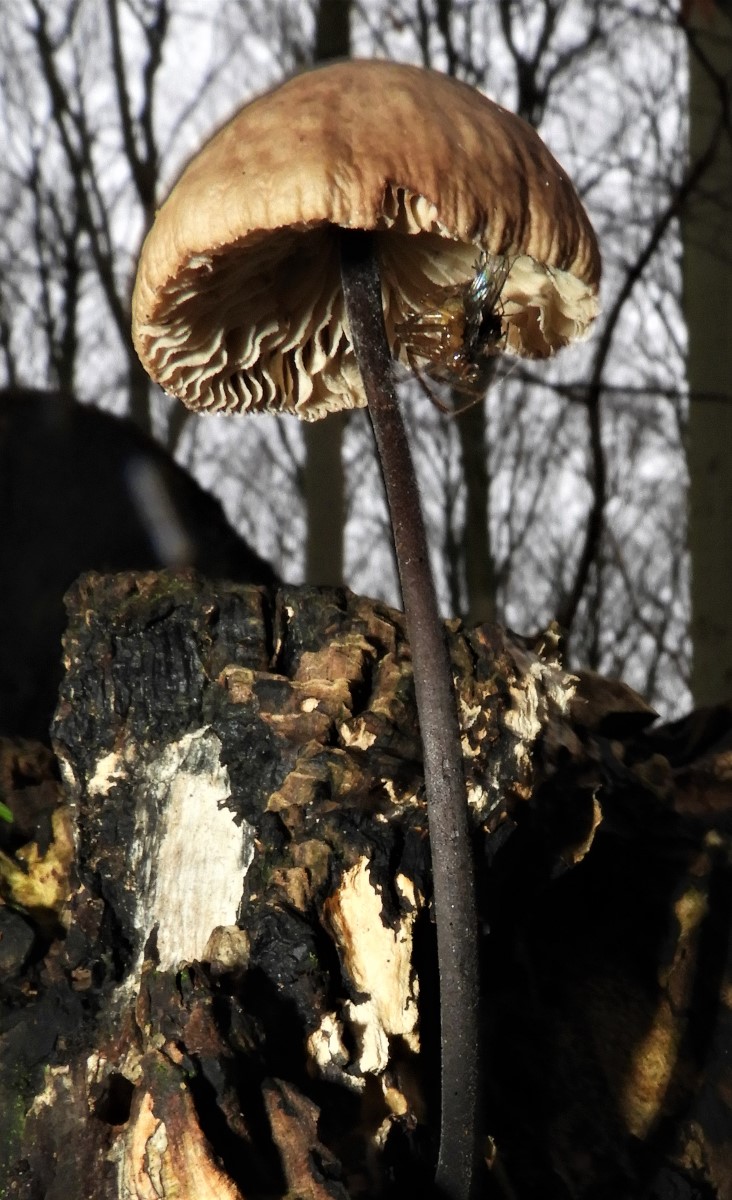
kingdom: Fungi
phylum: Basidiomycota
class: Agaricomycetes
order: Agaricales
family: Omphalotaceae
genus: Mycetinis
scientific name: Mycetinis alliaceus
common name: stor løghat
